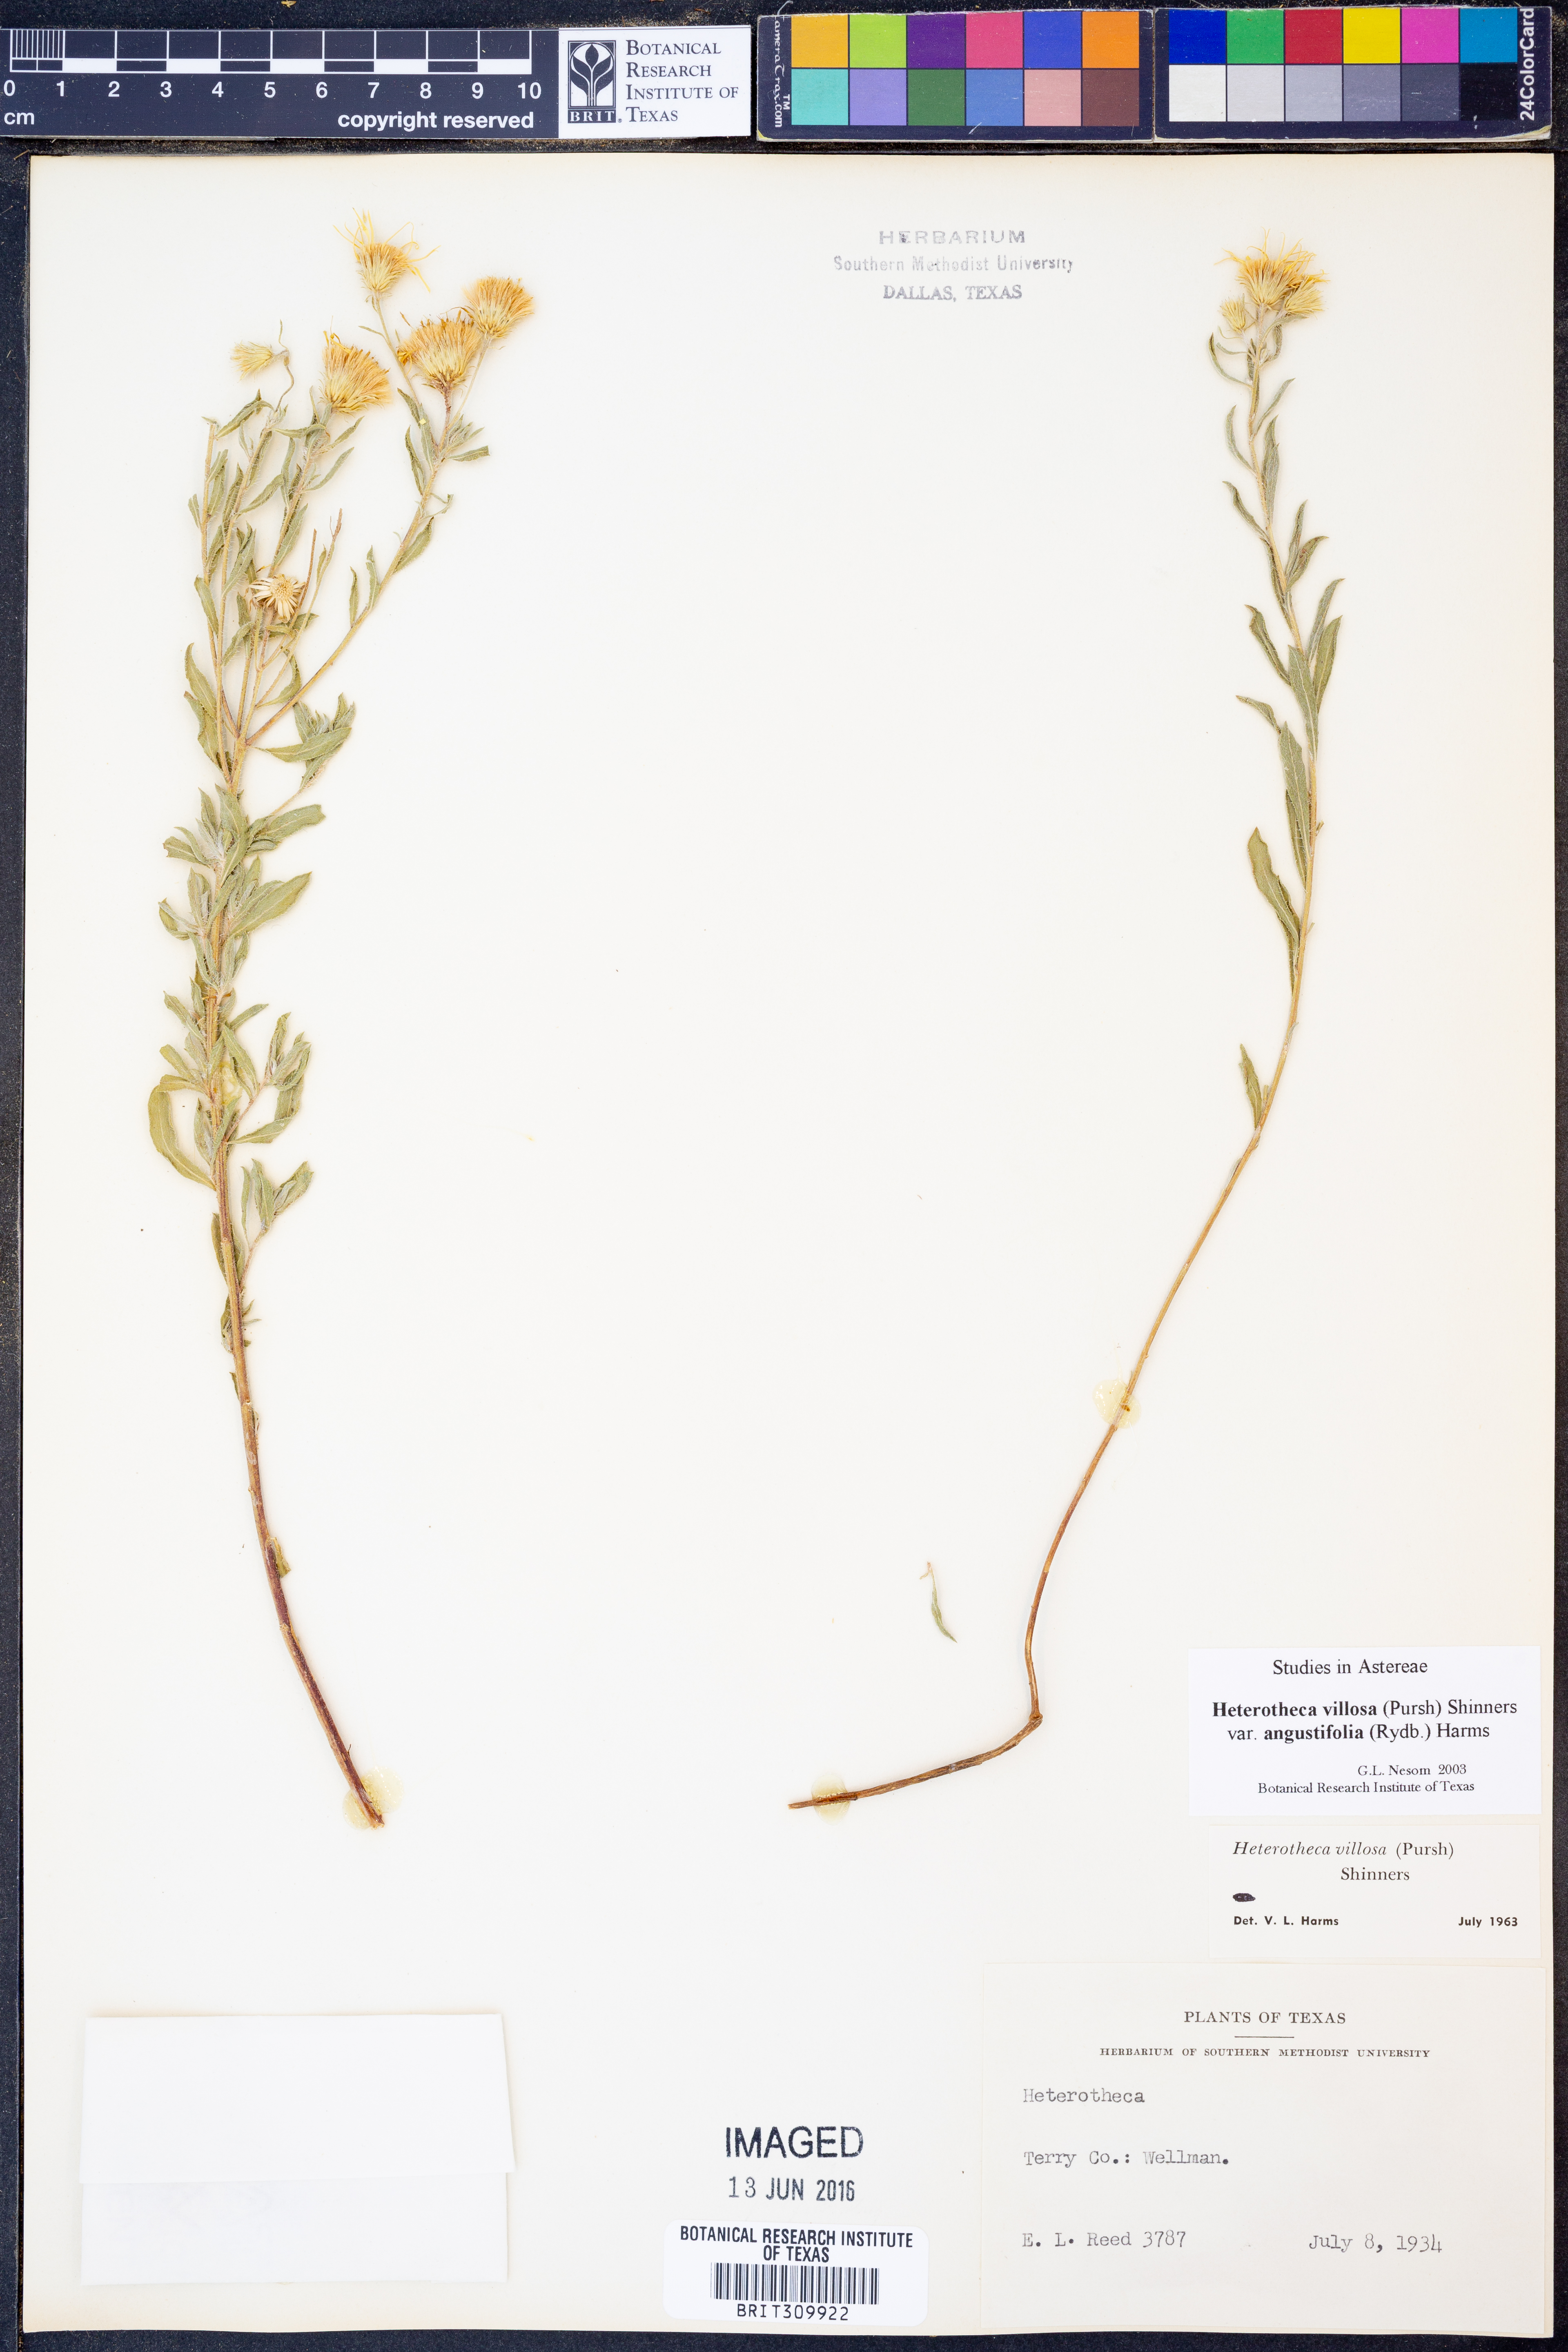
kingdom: Plantae
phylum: Tracheophyta
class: Magnoliopsida
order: Asterales
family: Asteraceae
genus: Heterotheca
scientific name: Heterotheca angustifolia
